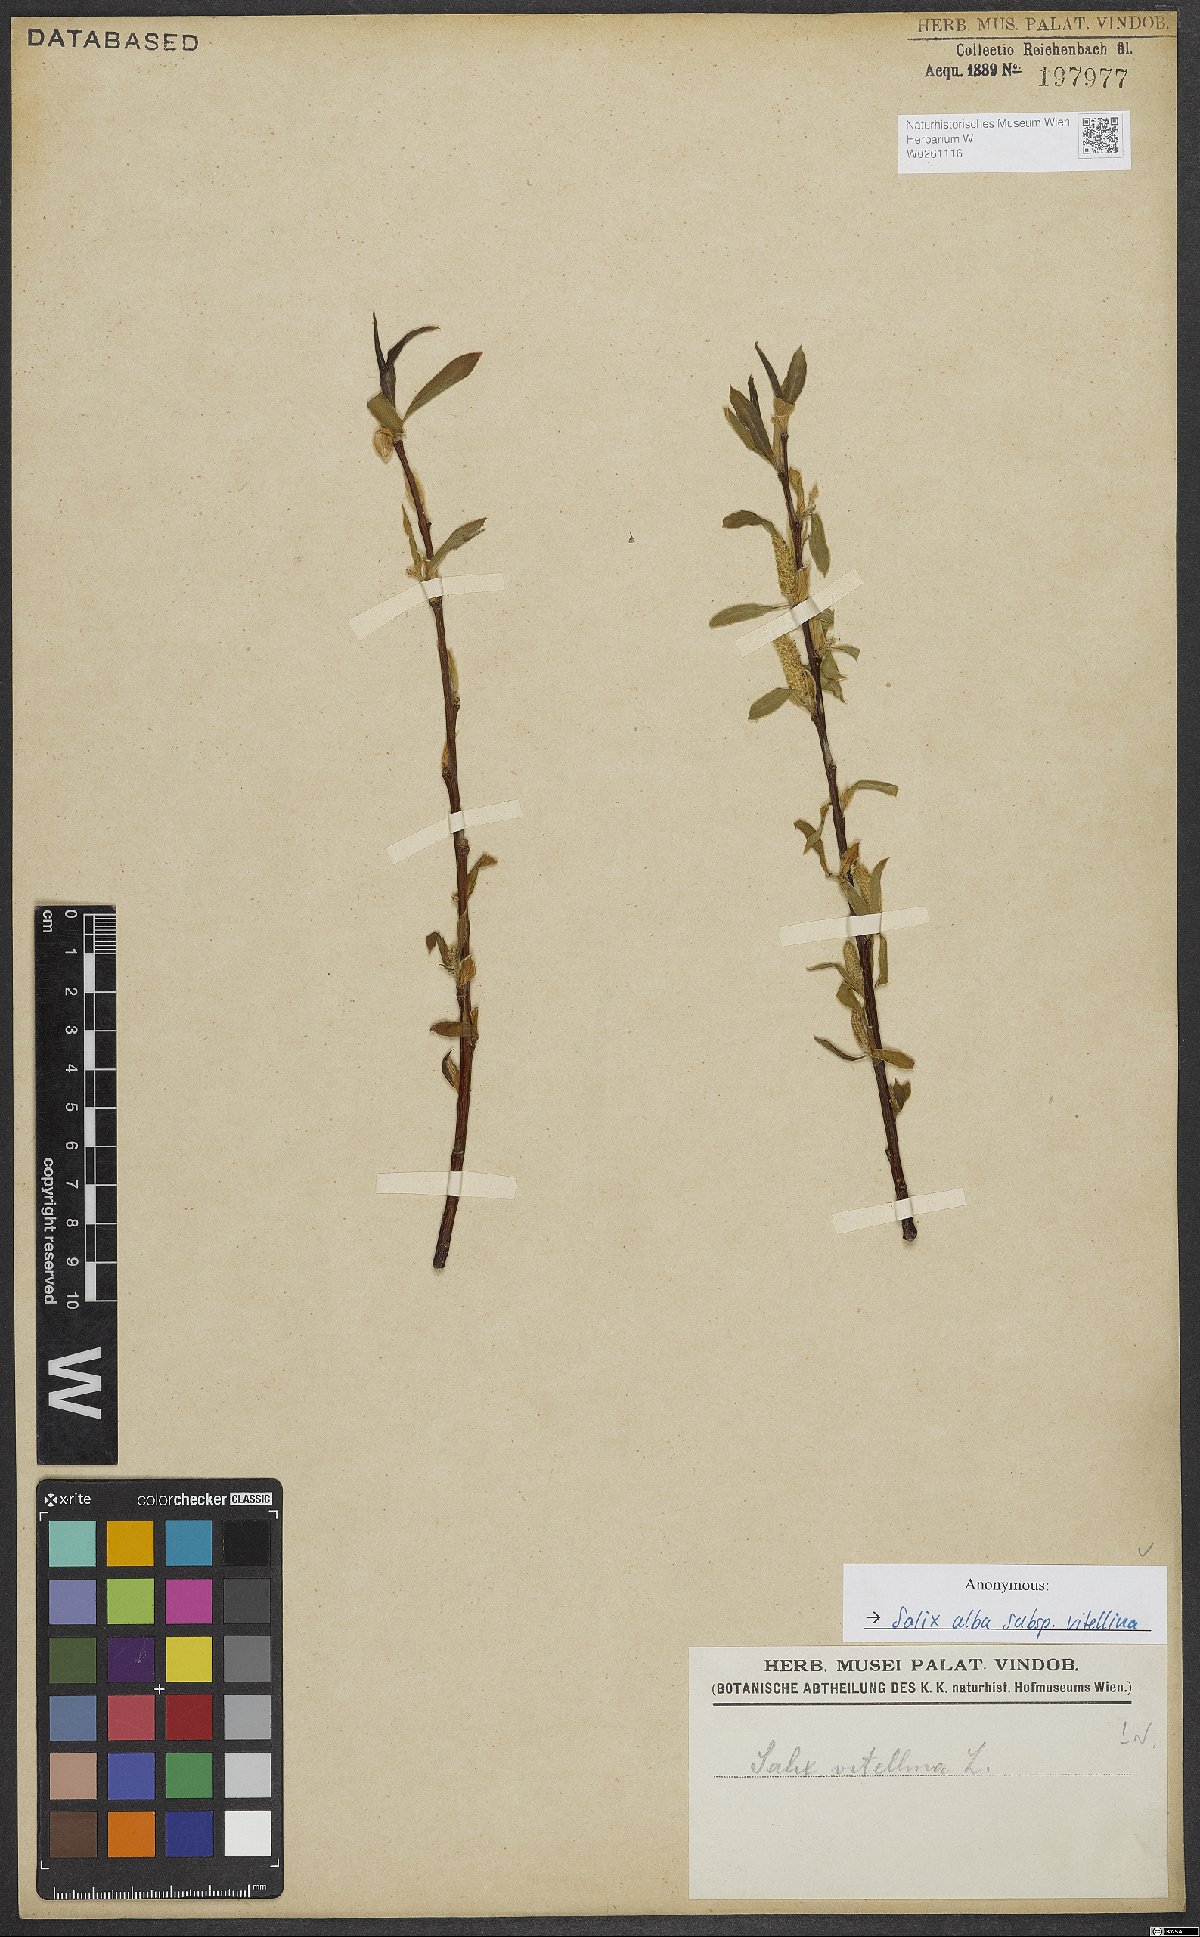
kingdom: Plantae
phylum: Tracheophyta
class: Magnoliopsida
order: Malpighiales
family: Salicaceae
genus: Salix
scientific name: Salix alba
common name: White willow
